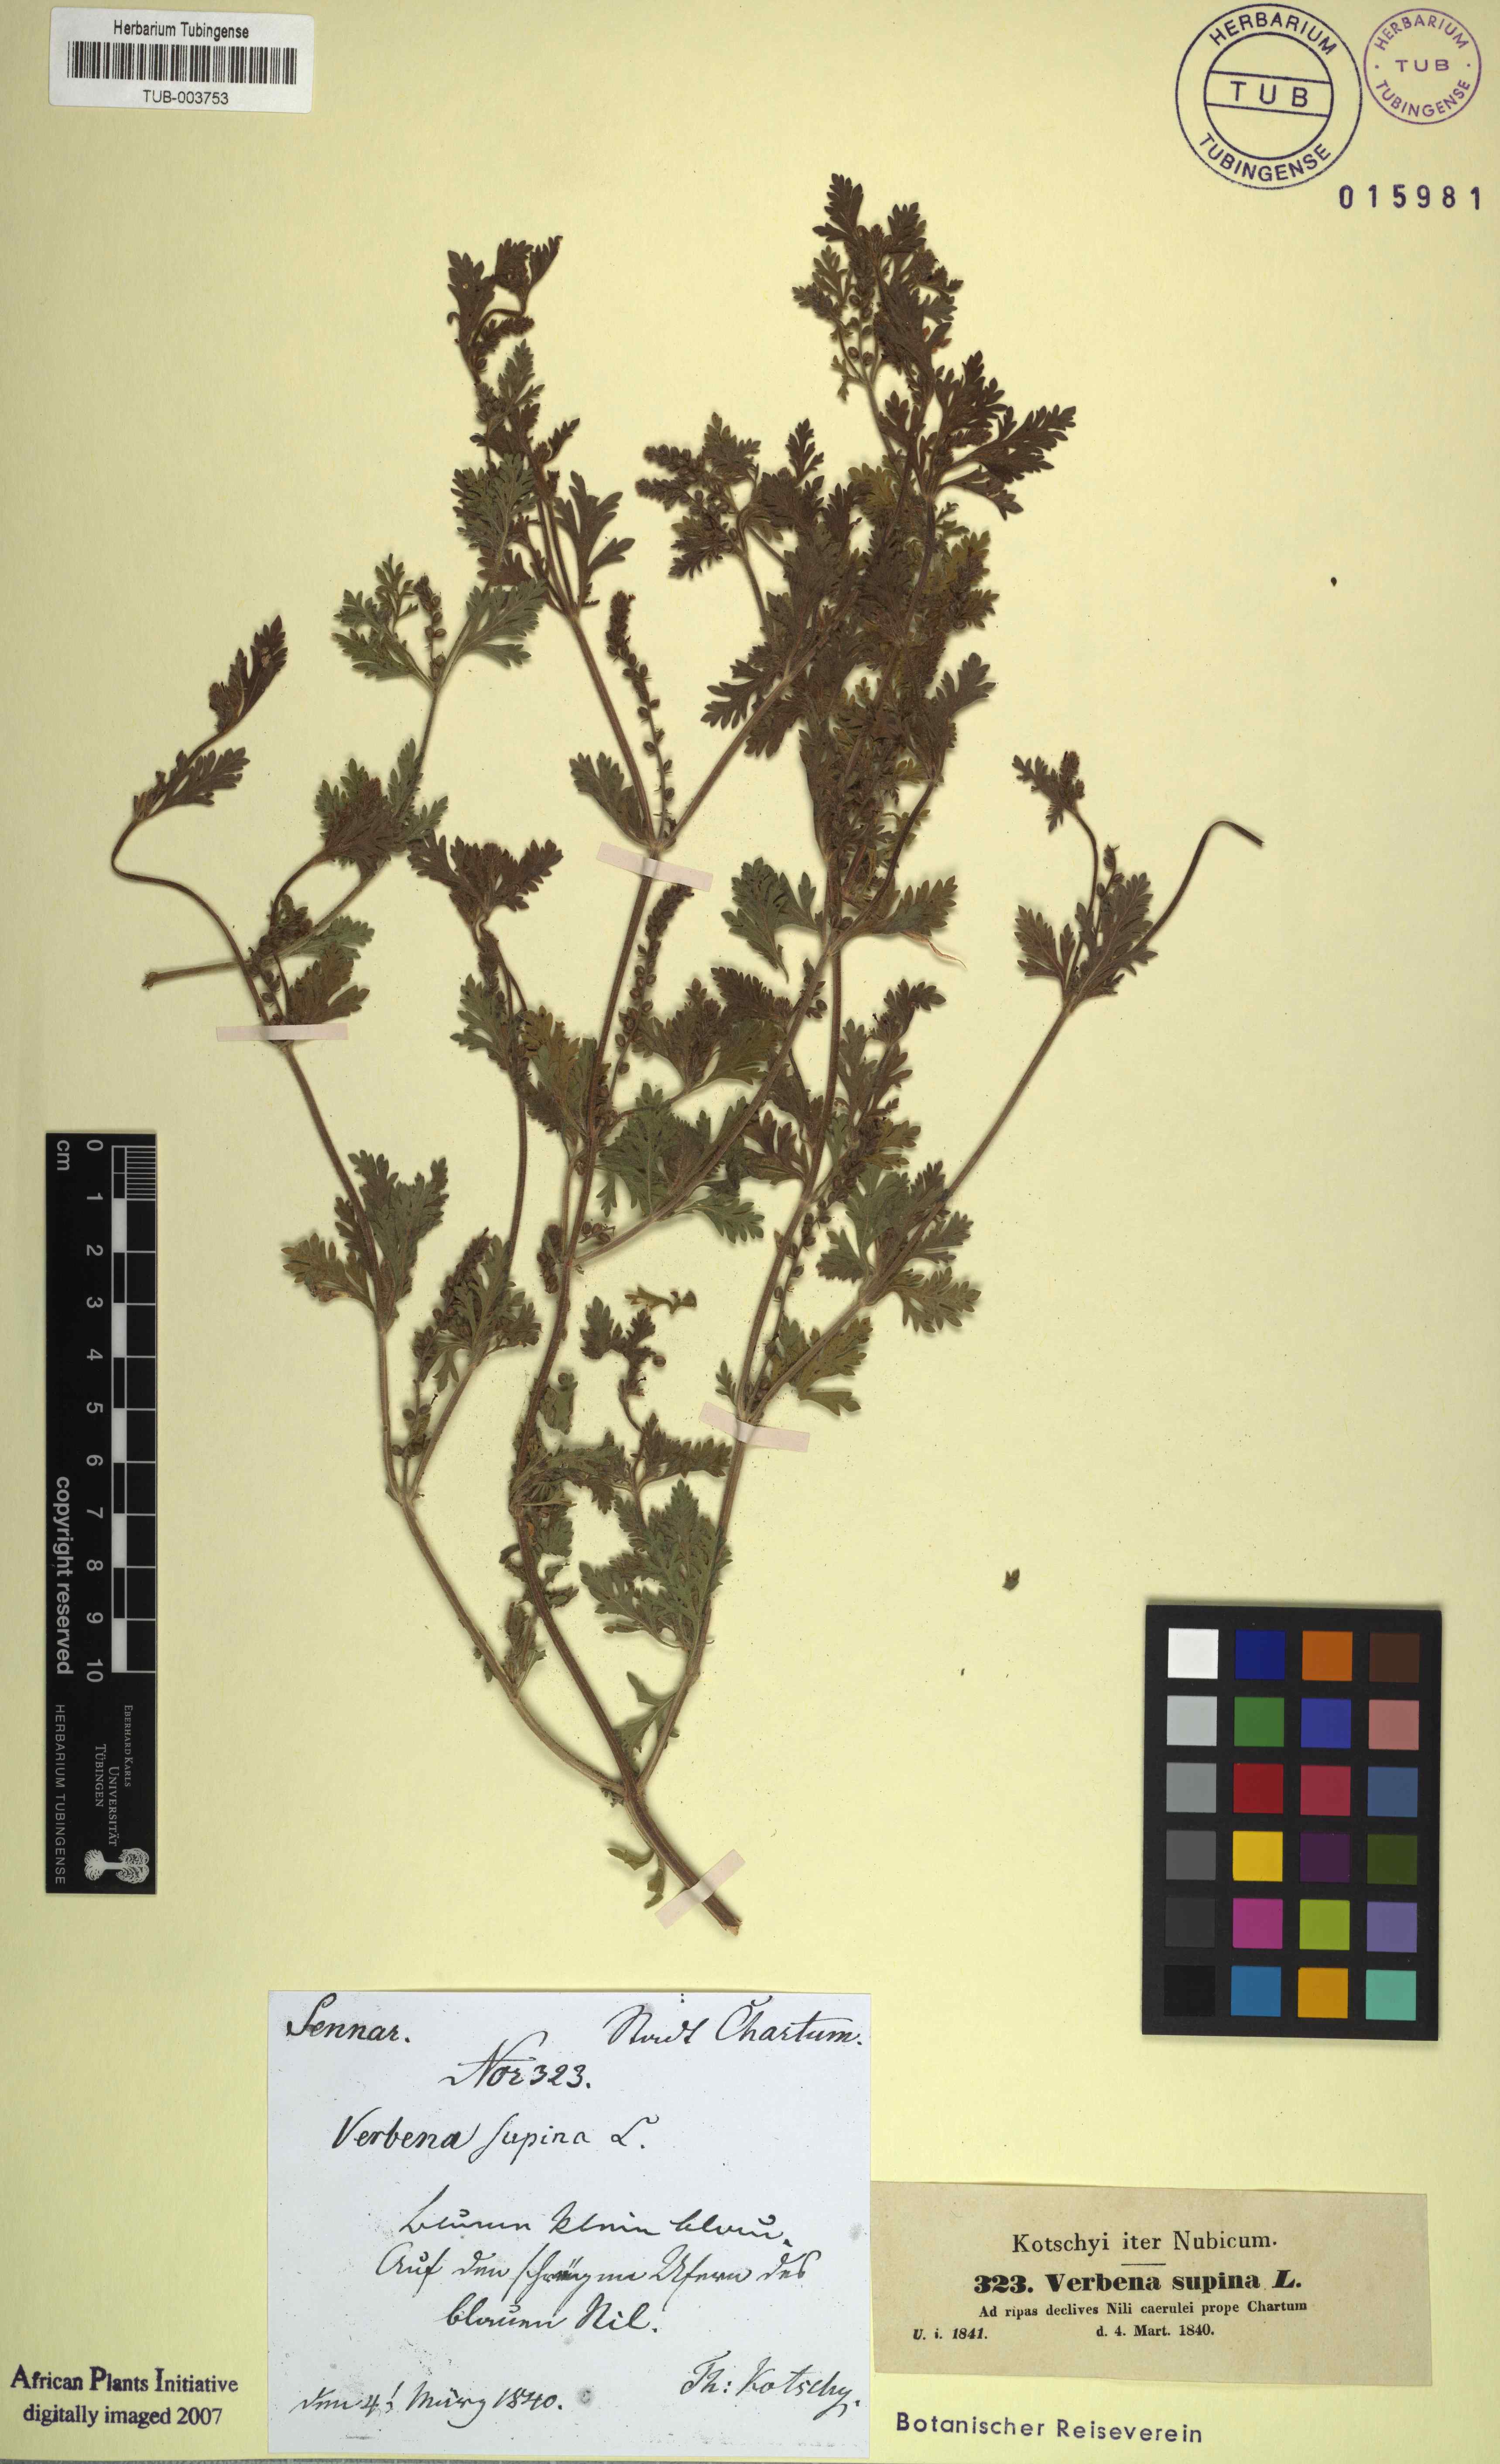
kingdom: Plantae
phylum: Tracheophyta
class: Magnoliopsida
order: Lamiales
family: Verbenaceae
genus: Verbena
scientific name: Verbena supina
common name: Trailing vervain
